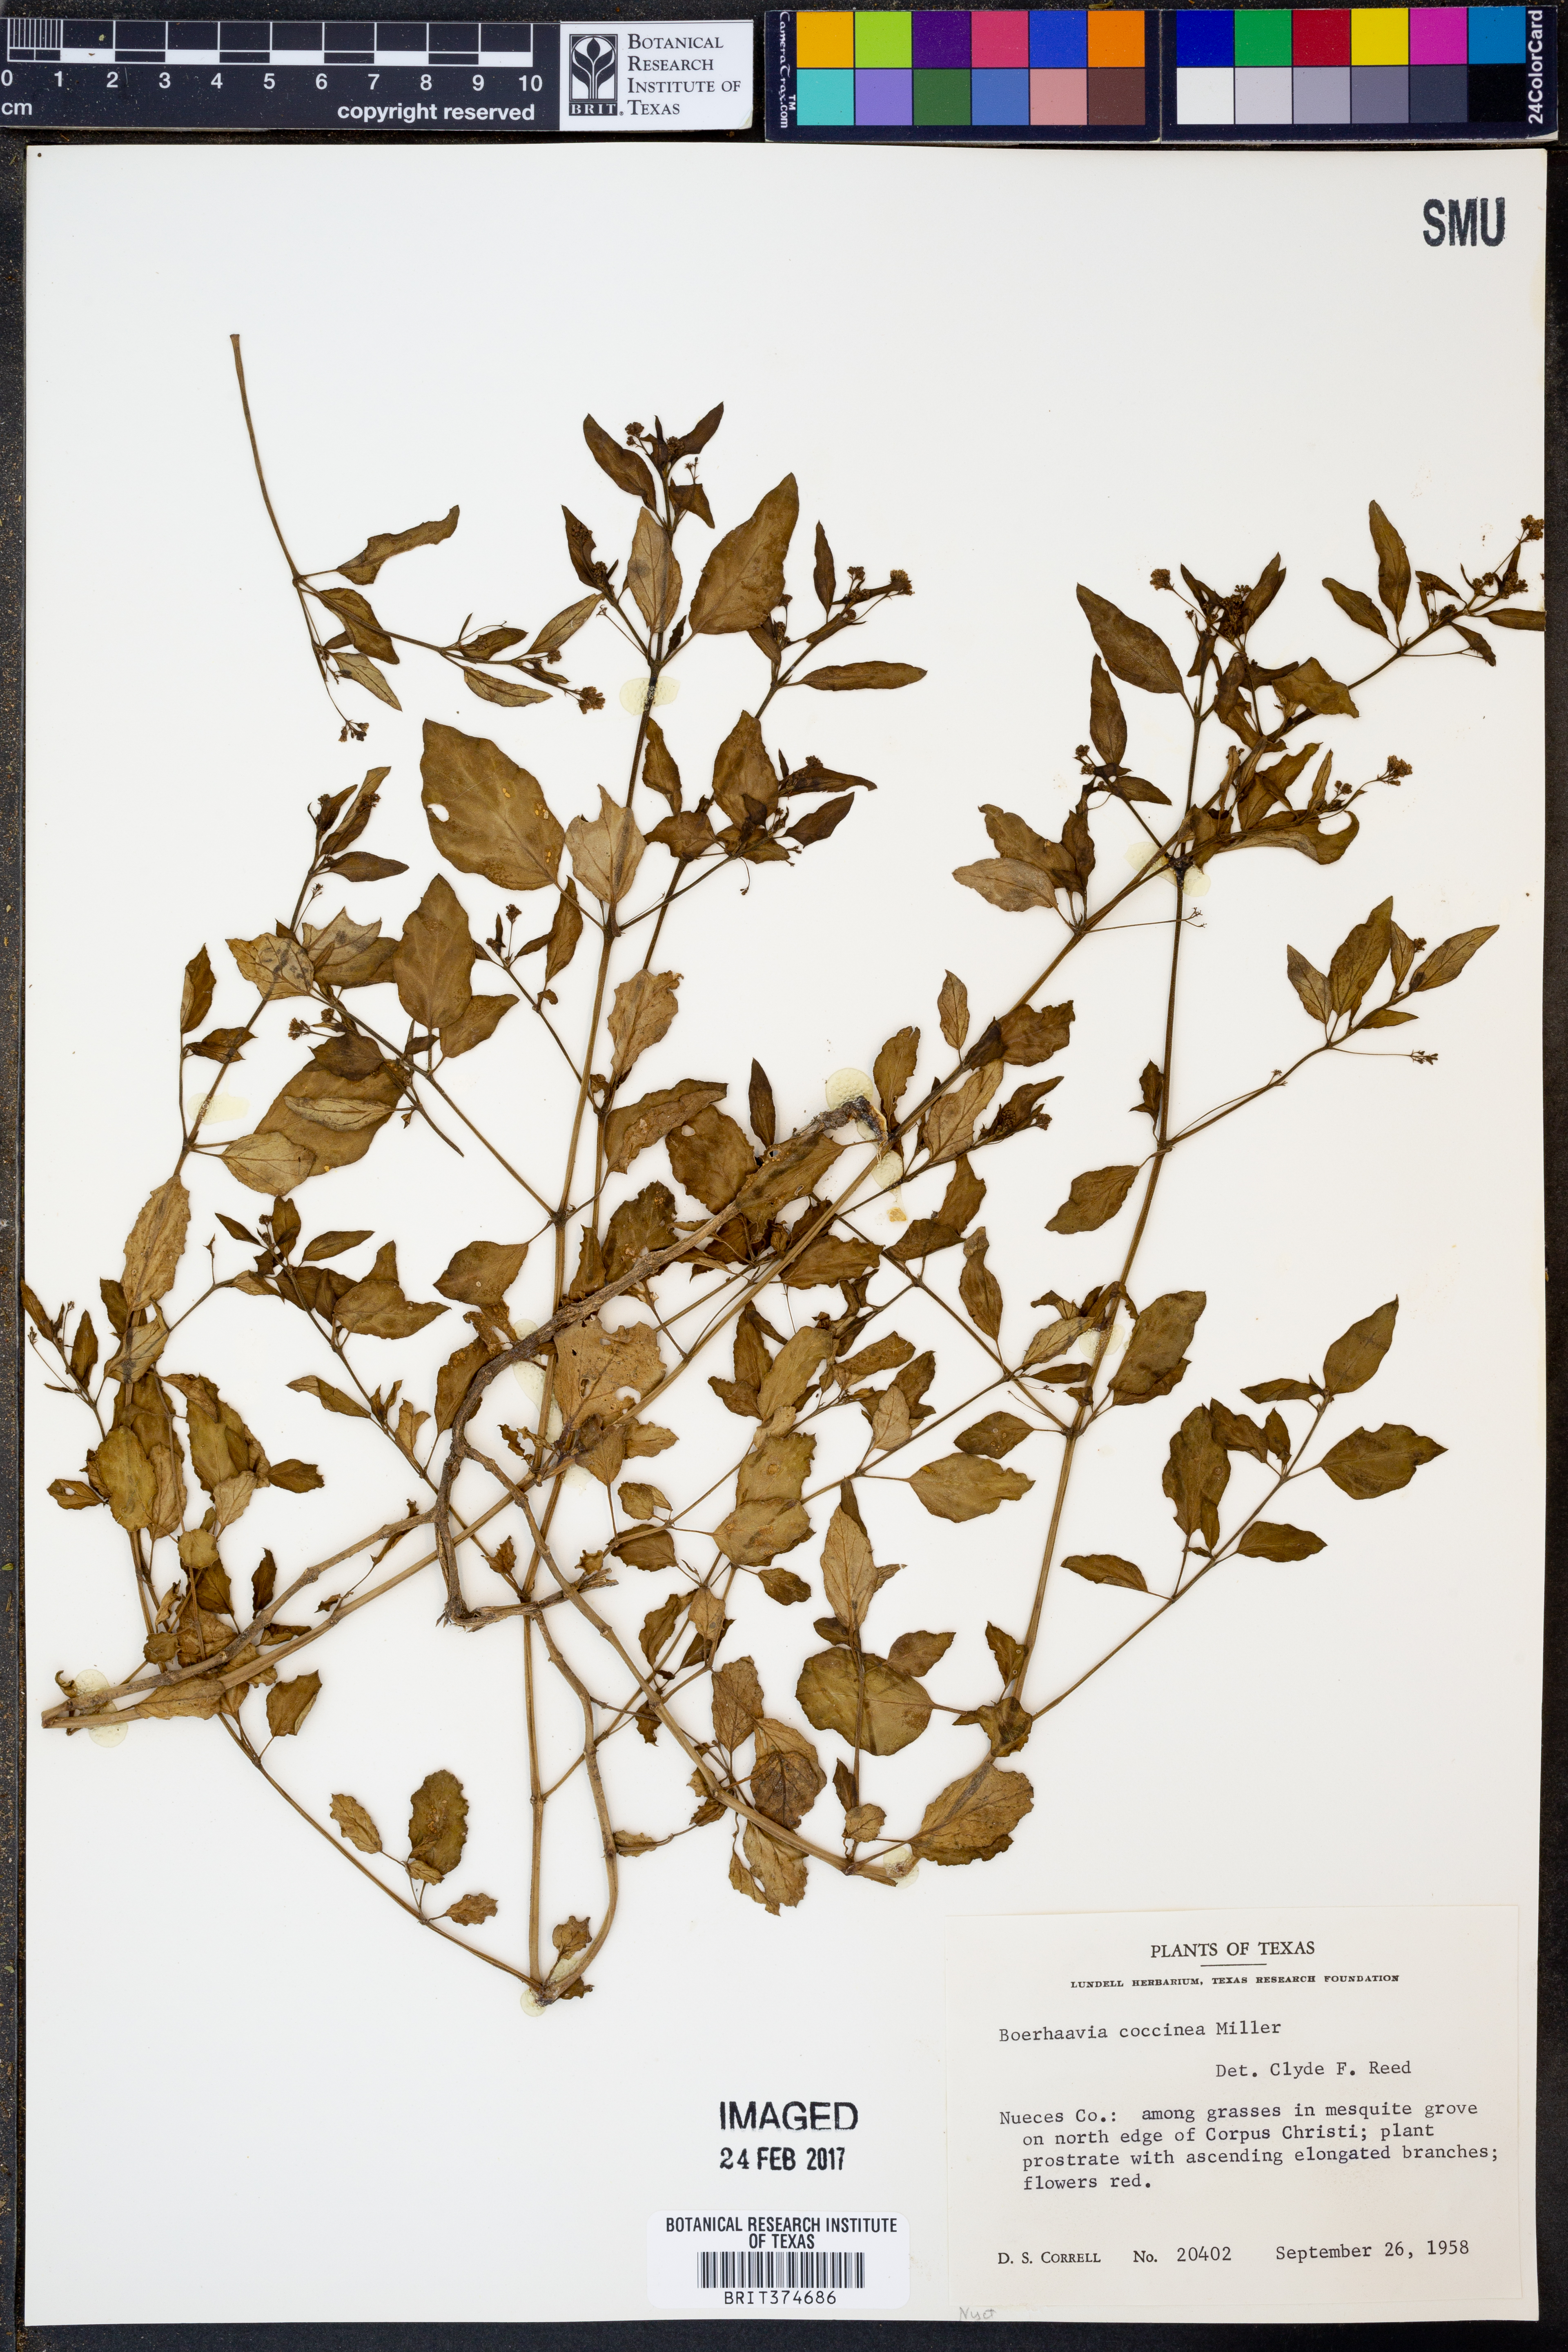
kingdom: Plantae
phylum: Tracheophyta
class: Magnoliopsida
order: Caryophyllales
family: Nyctaginaceae
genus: Boerhavia
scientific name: Boerhavia coccinea
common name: Scarlet spiderling
